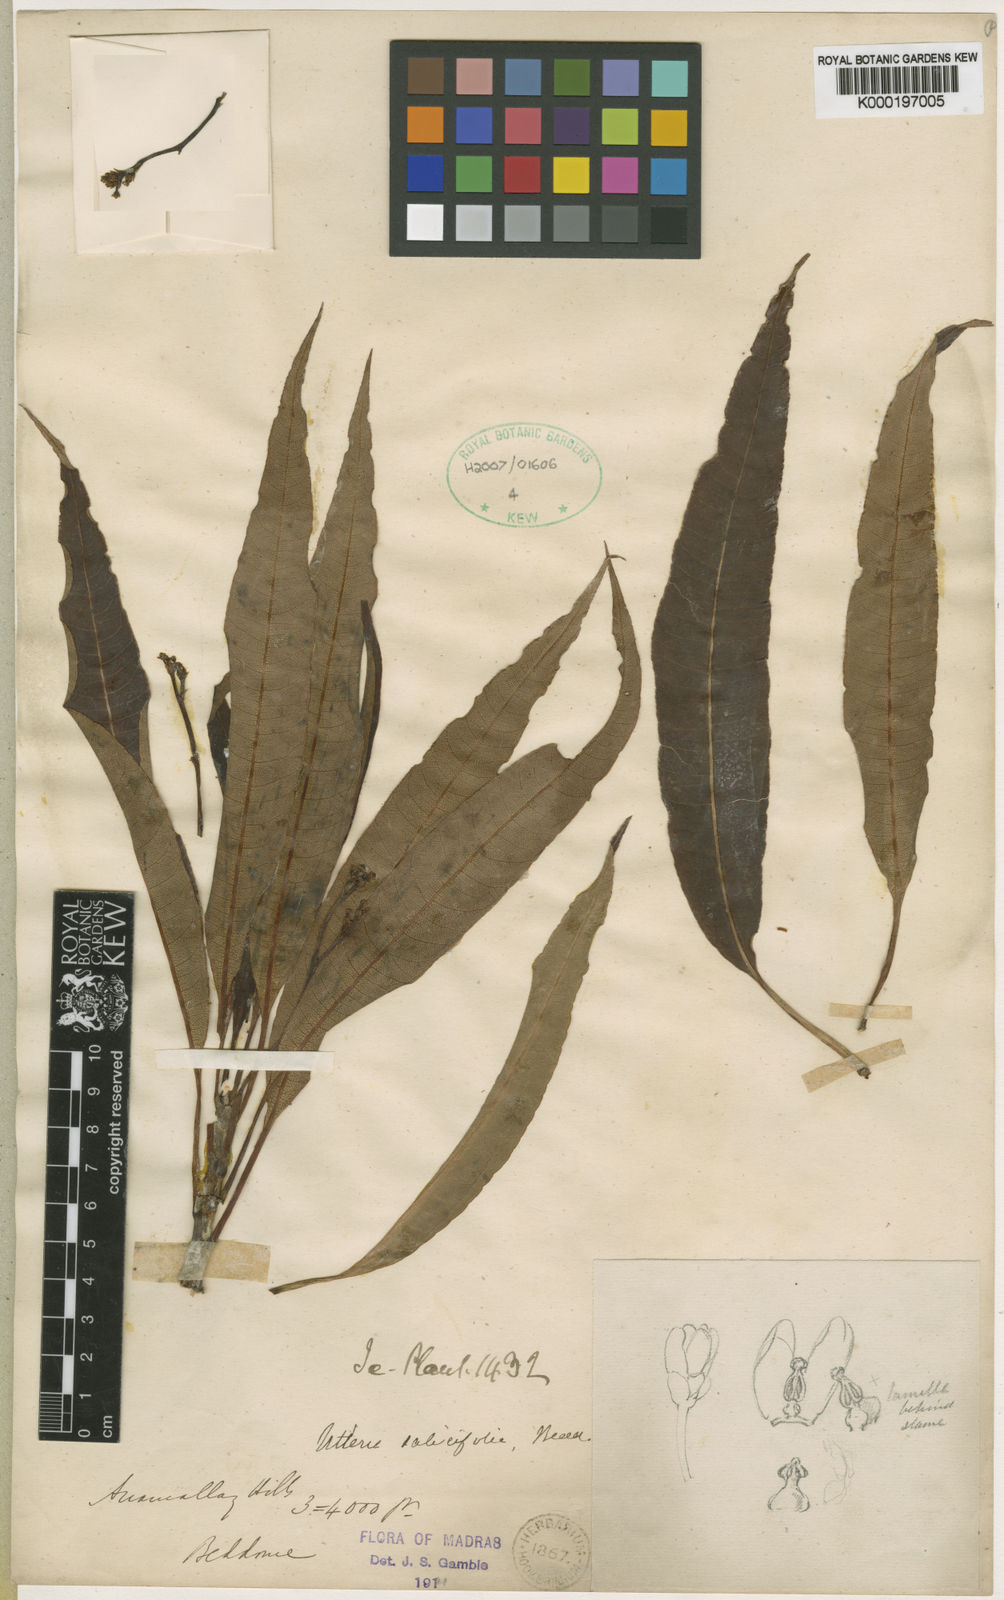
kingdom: Plantae
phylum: Tracheophyta
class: Magnoliopsida
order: Gentianales
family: Apocynaceae
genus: Decalepis
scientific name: Decalepis
